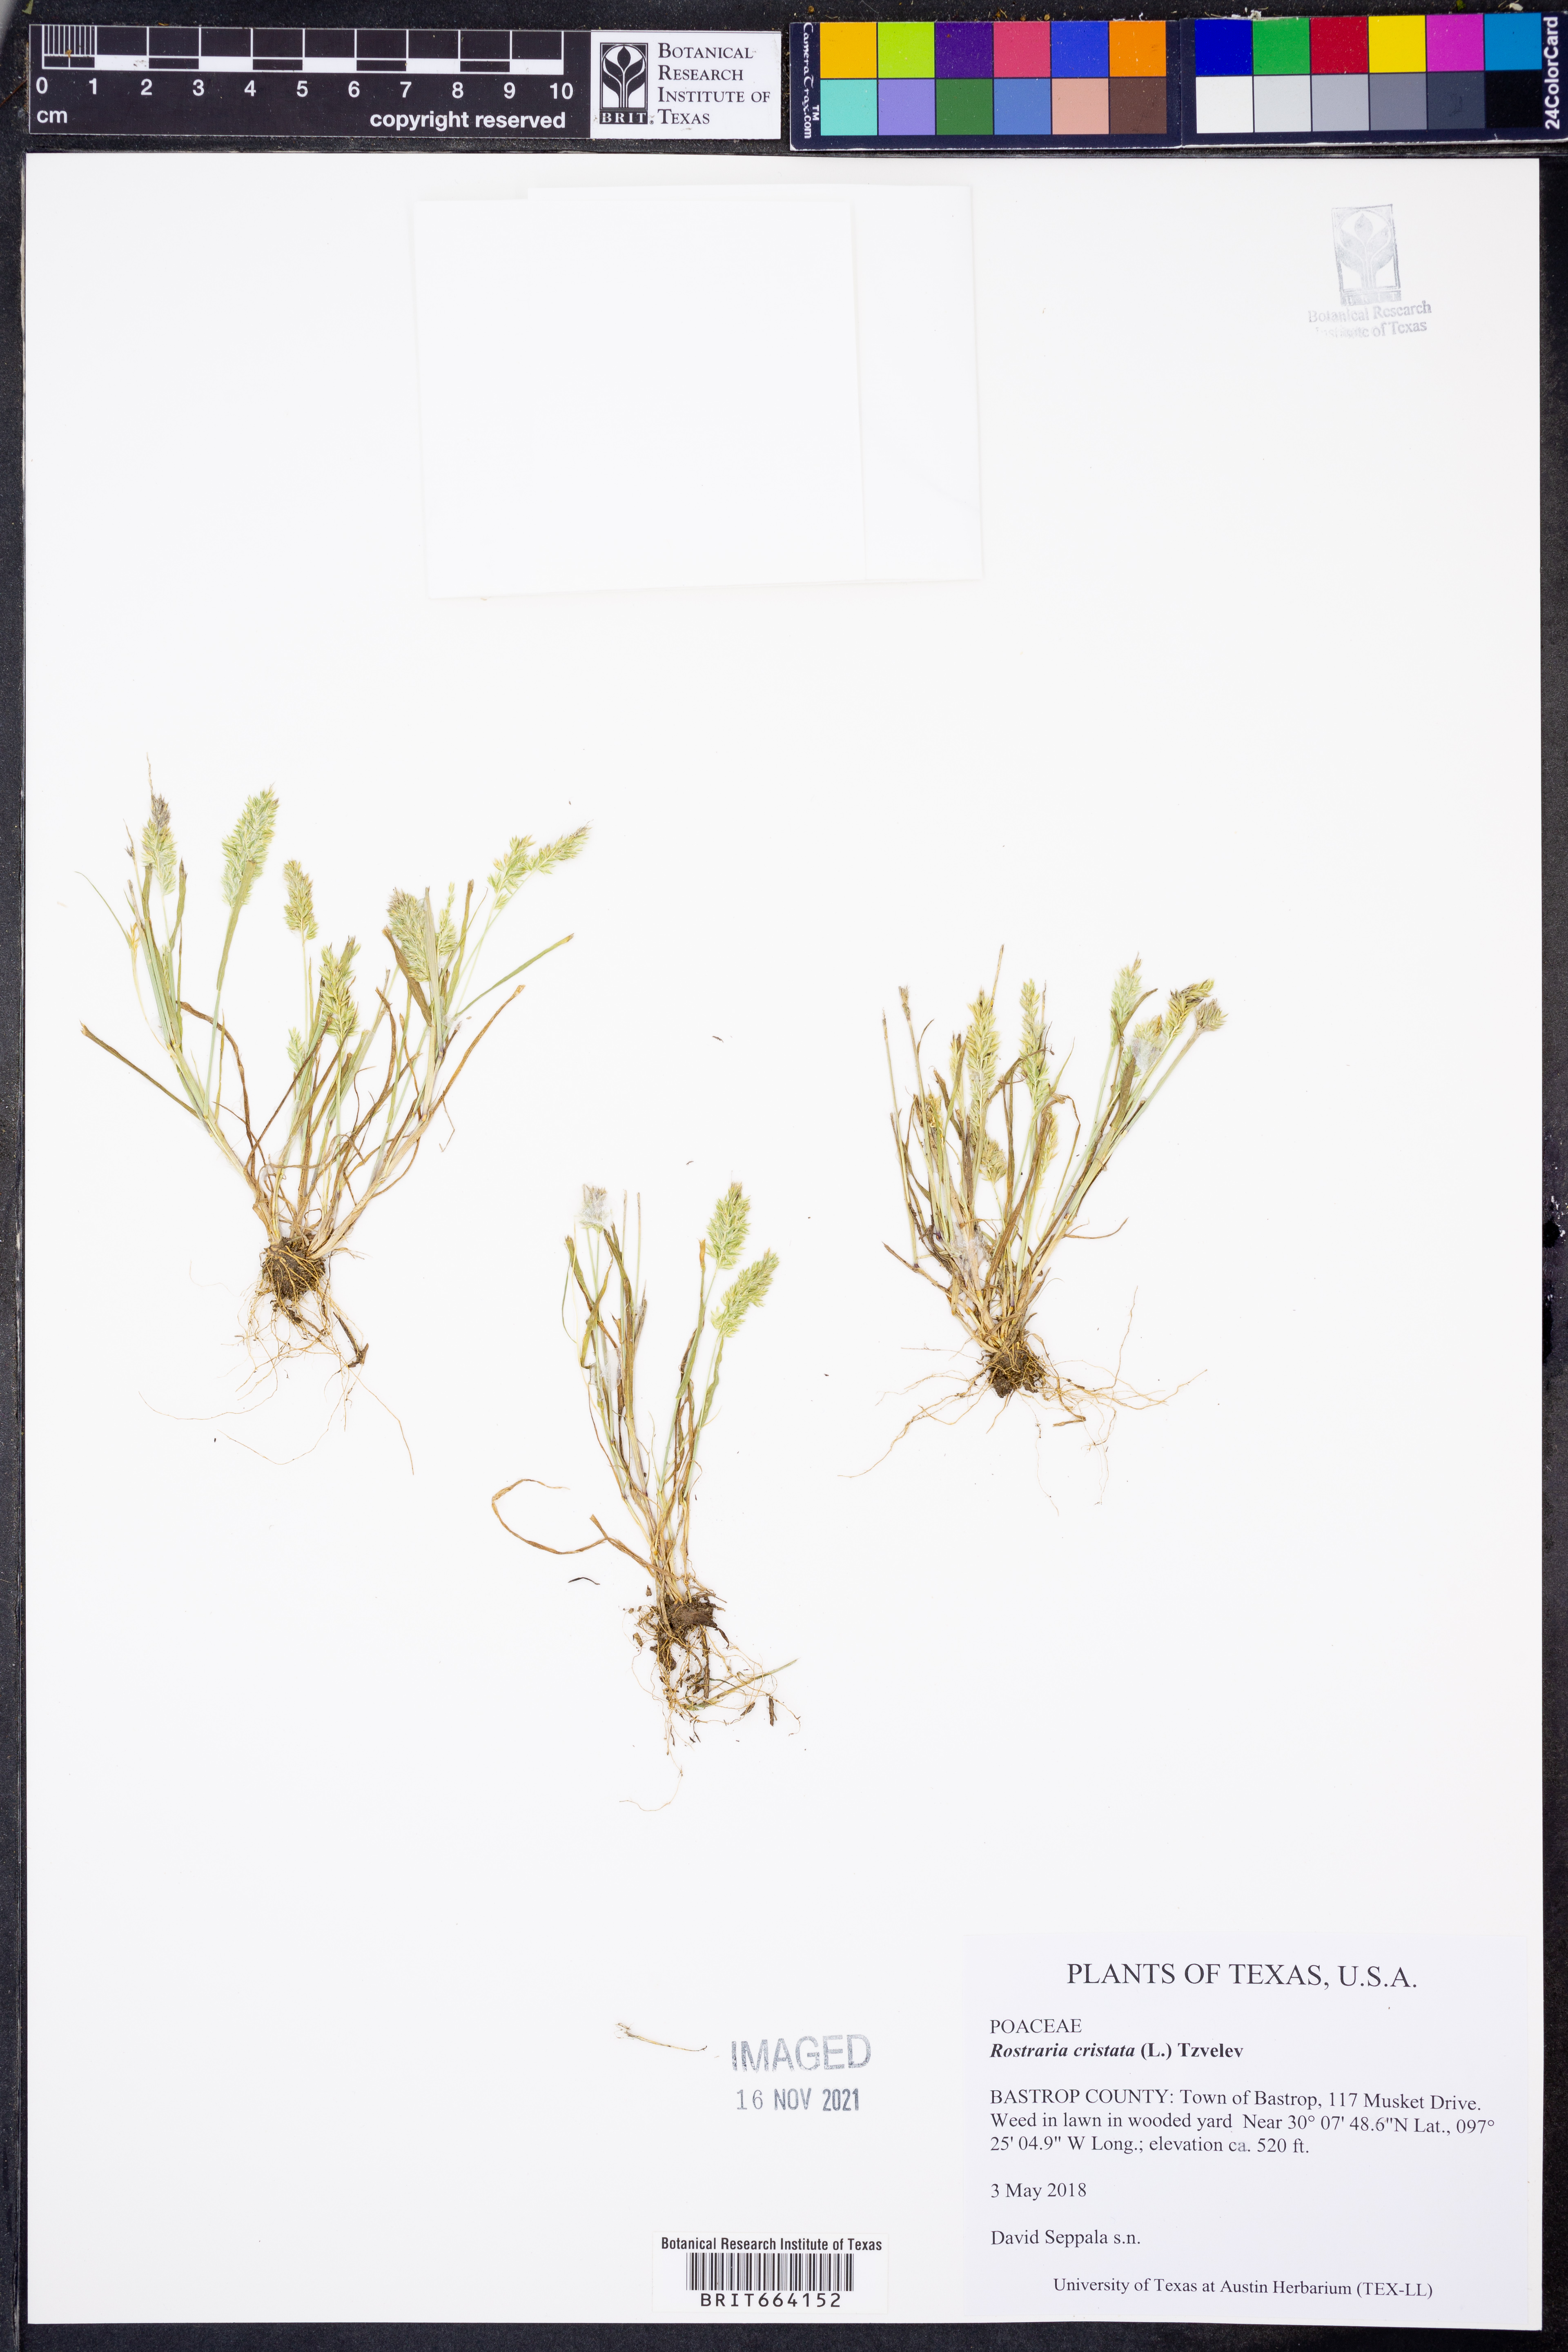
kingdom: Plantae
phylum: Tracheophyta
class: Liliopsida
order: Poales
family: Poaceae
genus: Rostraria
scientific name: Rostraria cristata
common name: Mediterranean hair-grass
